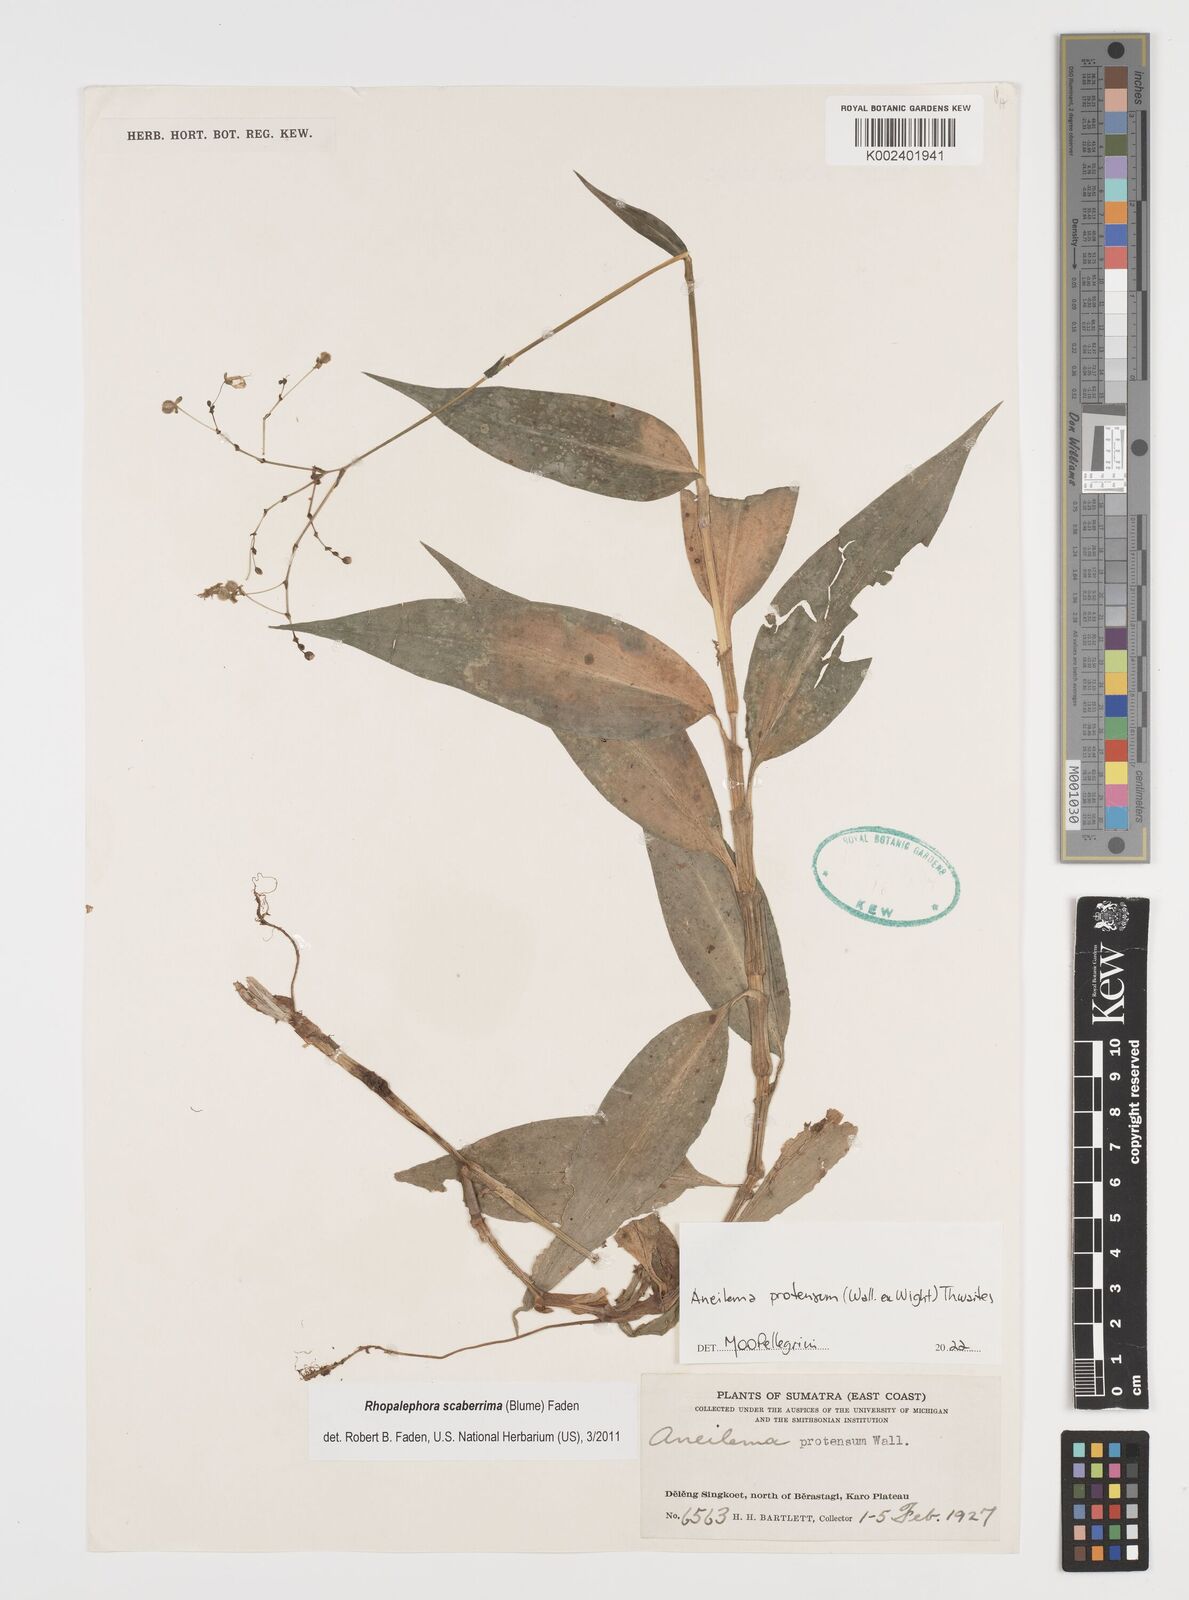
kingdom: Plantae
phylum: Tracheophyta
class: Liliopsida
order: Commelinales
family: Commelinaceae
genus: Rhopalephora
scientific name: Rhopalephora
